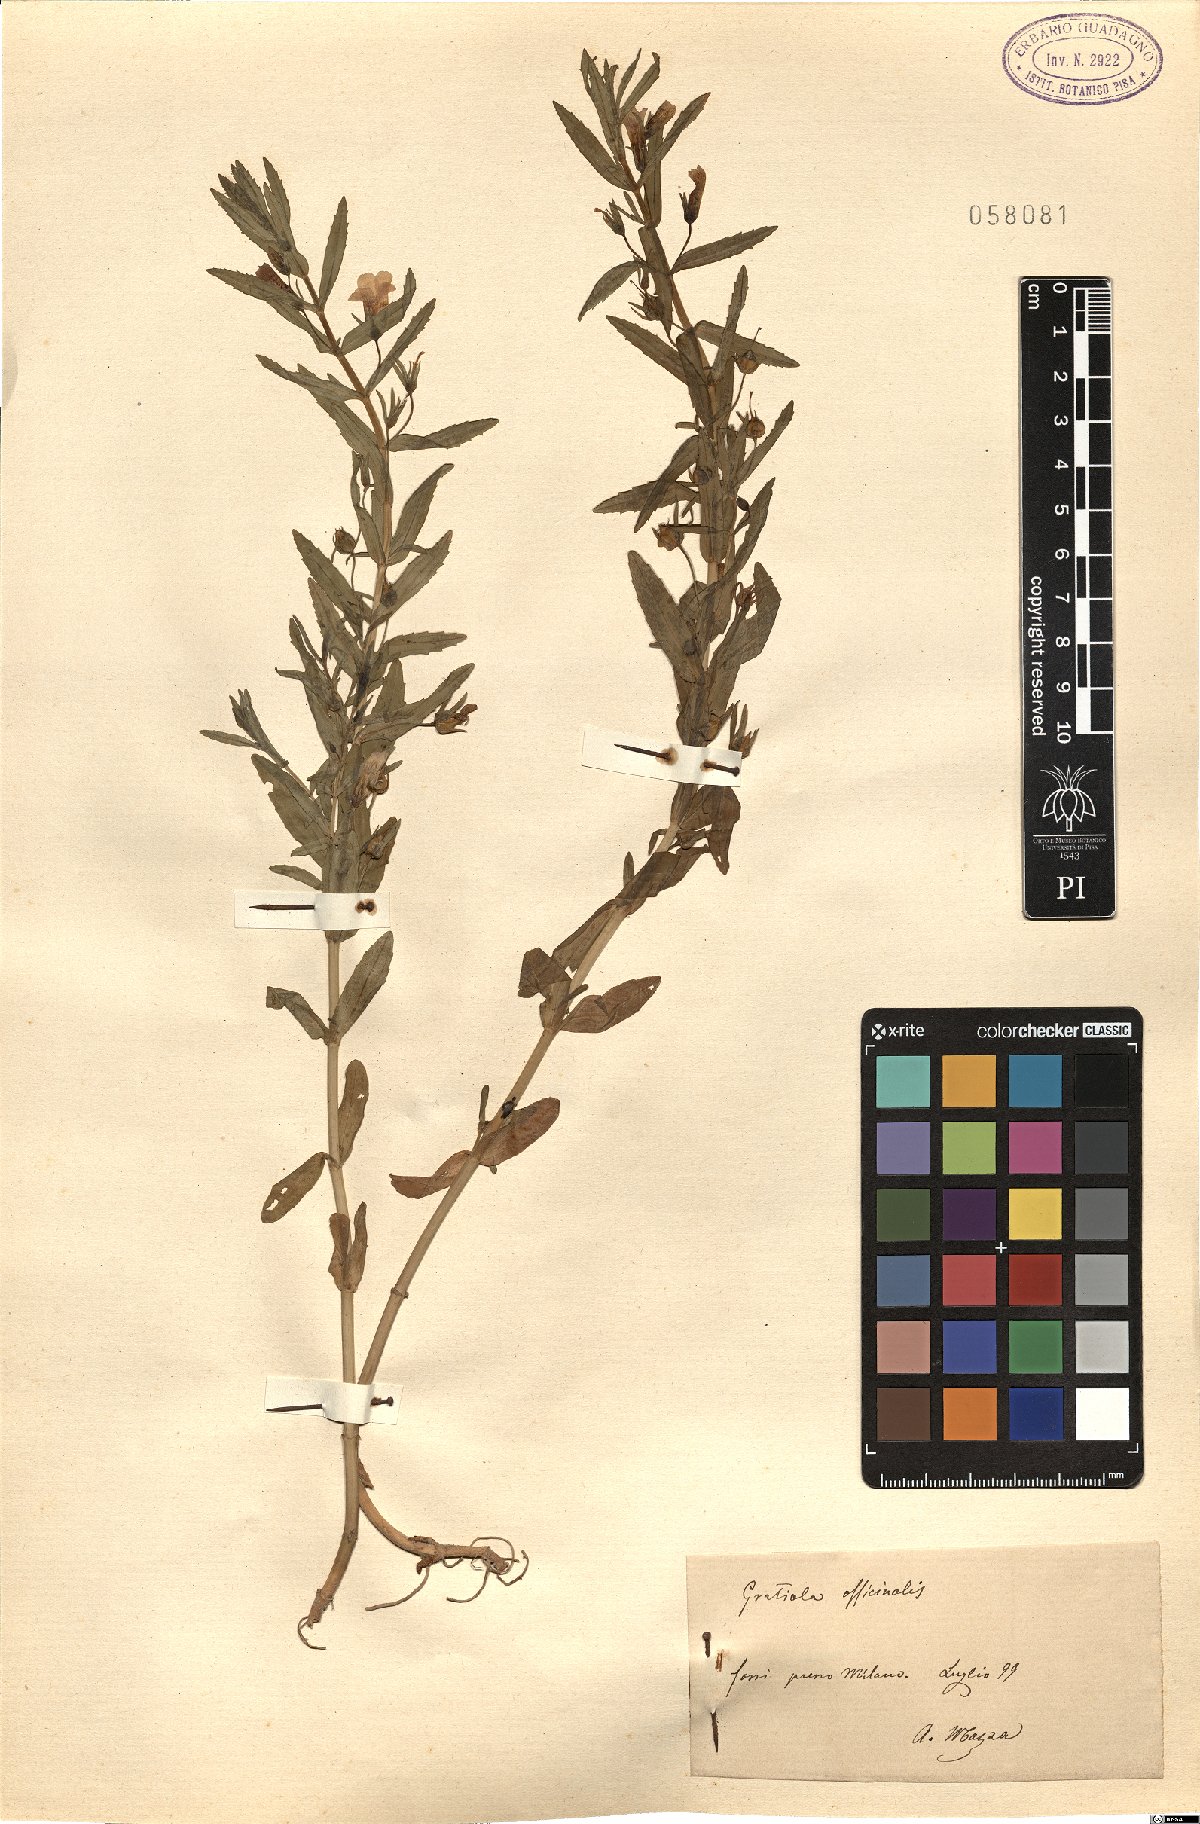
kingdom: Plantae
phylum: Tracheophyta
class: Magnoliopsida
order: Lamiales
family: Plantaginaceae
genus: Gratiola
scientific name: Gratiola officinalis
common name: Gratiola
